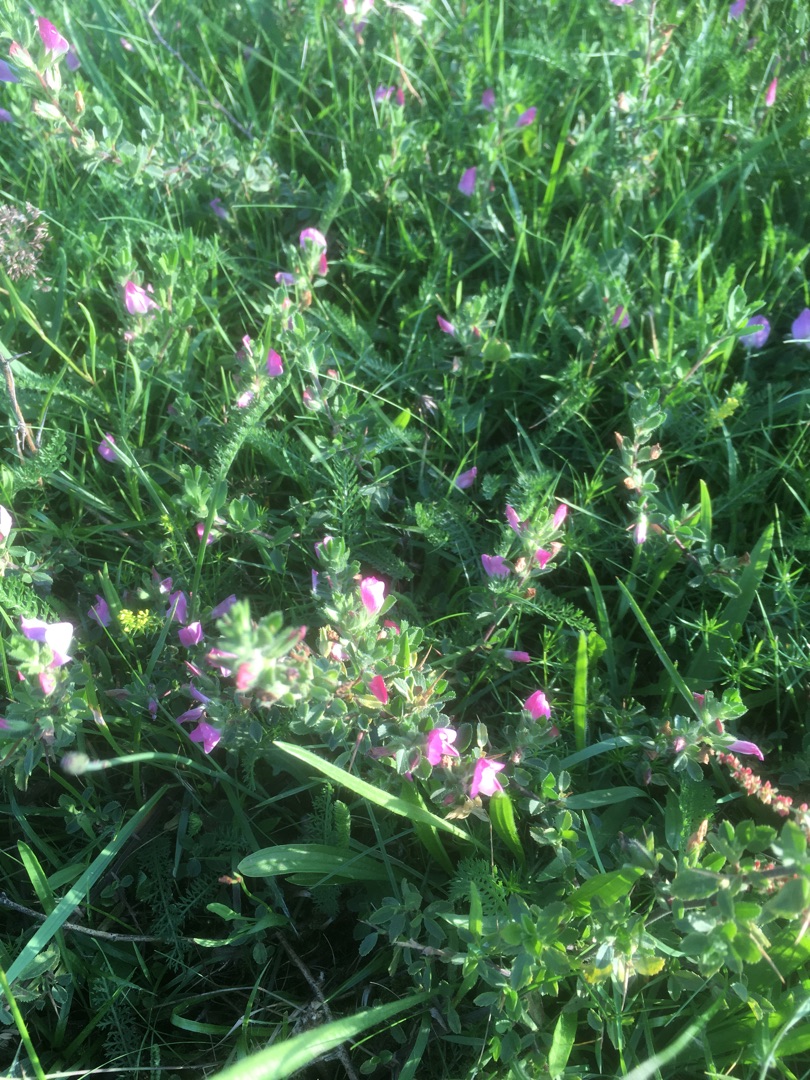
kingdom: Plantae
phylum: Tracheophyta
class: Magnoliopsida
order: Fabales
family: Fabaceae
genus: Ononis
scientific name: Ononis spinosa
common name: Mark-krageklo
